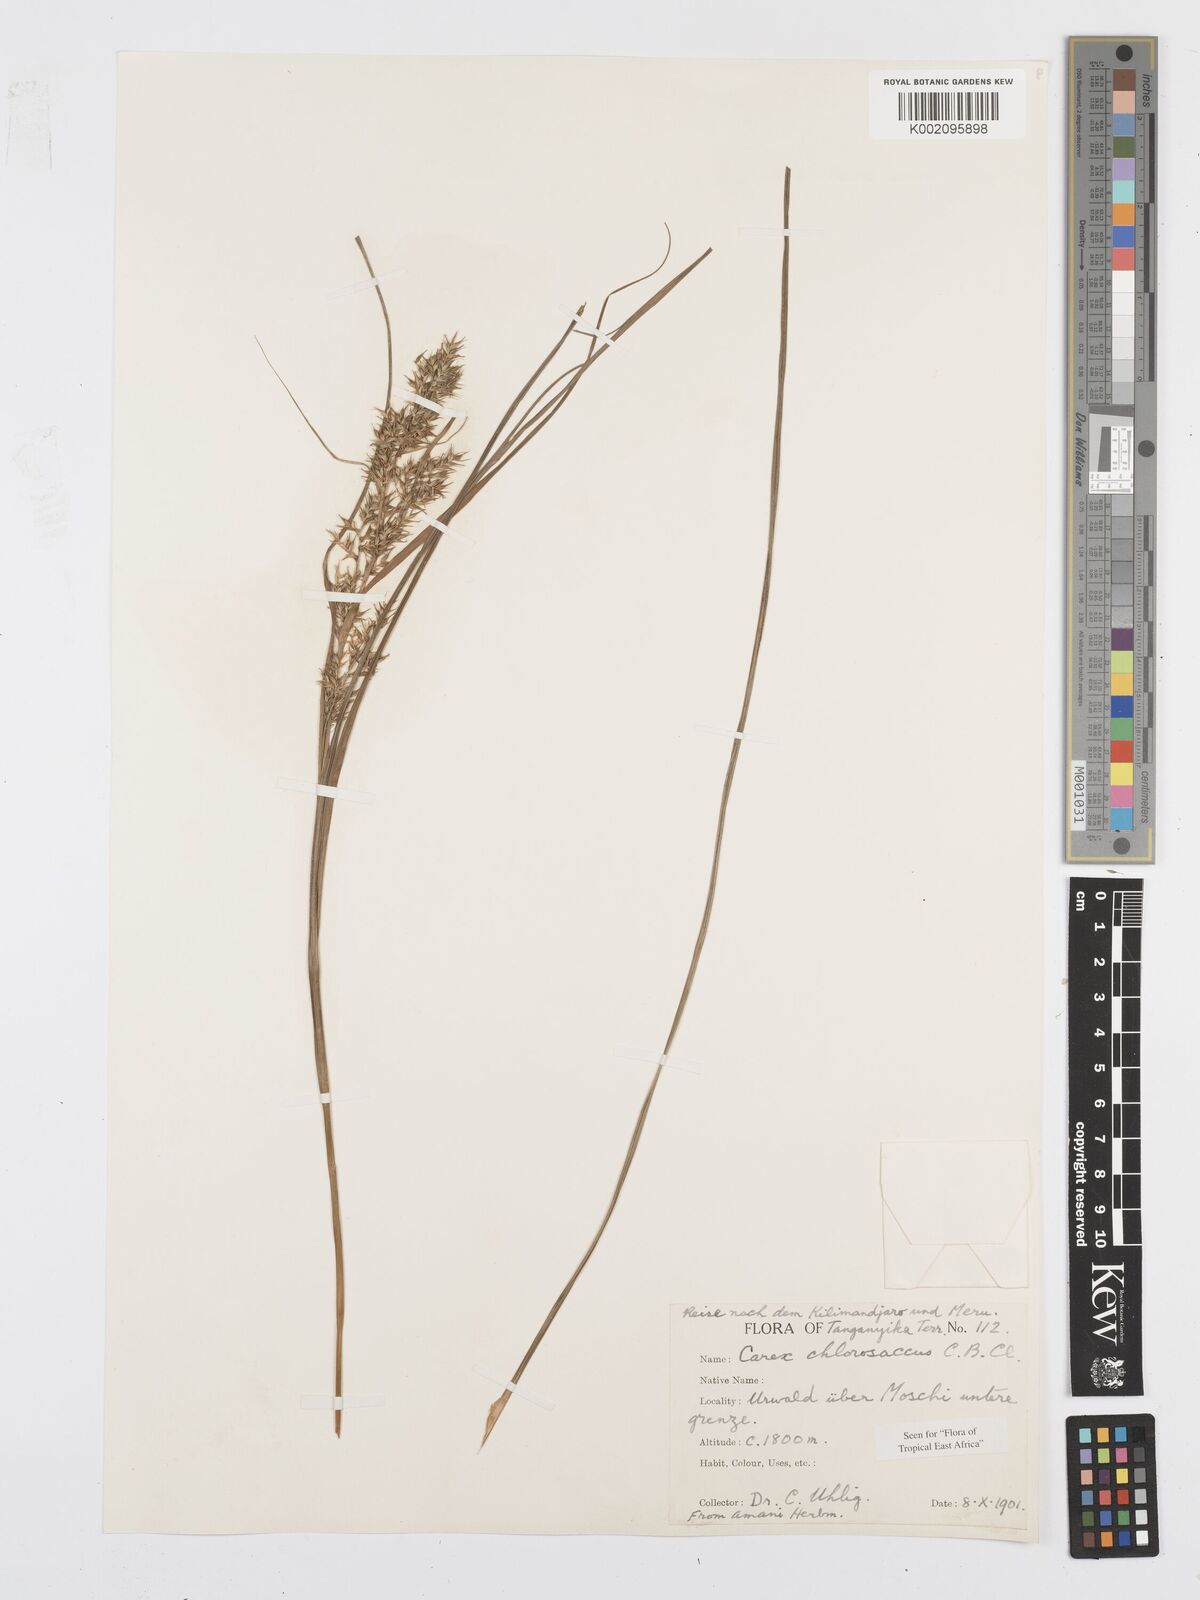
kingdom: Plantae
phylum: Tracheophyta
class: Liliopsida
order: Poales
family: Cyperaceae
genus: Carex
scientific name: Carex chlorosaccus
